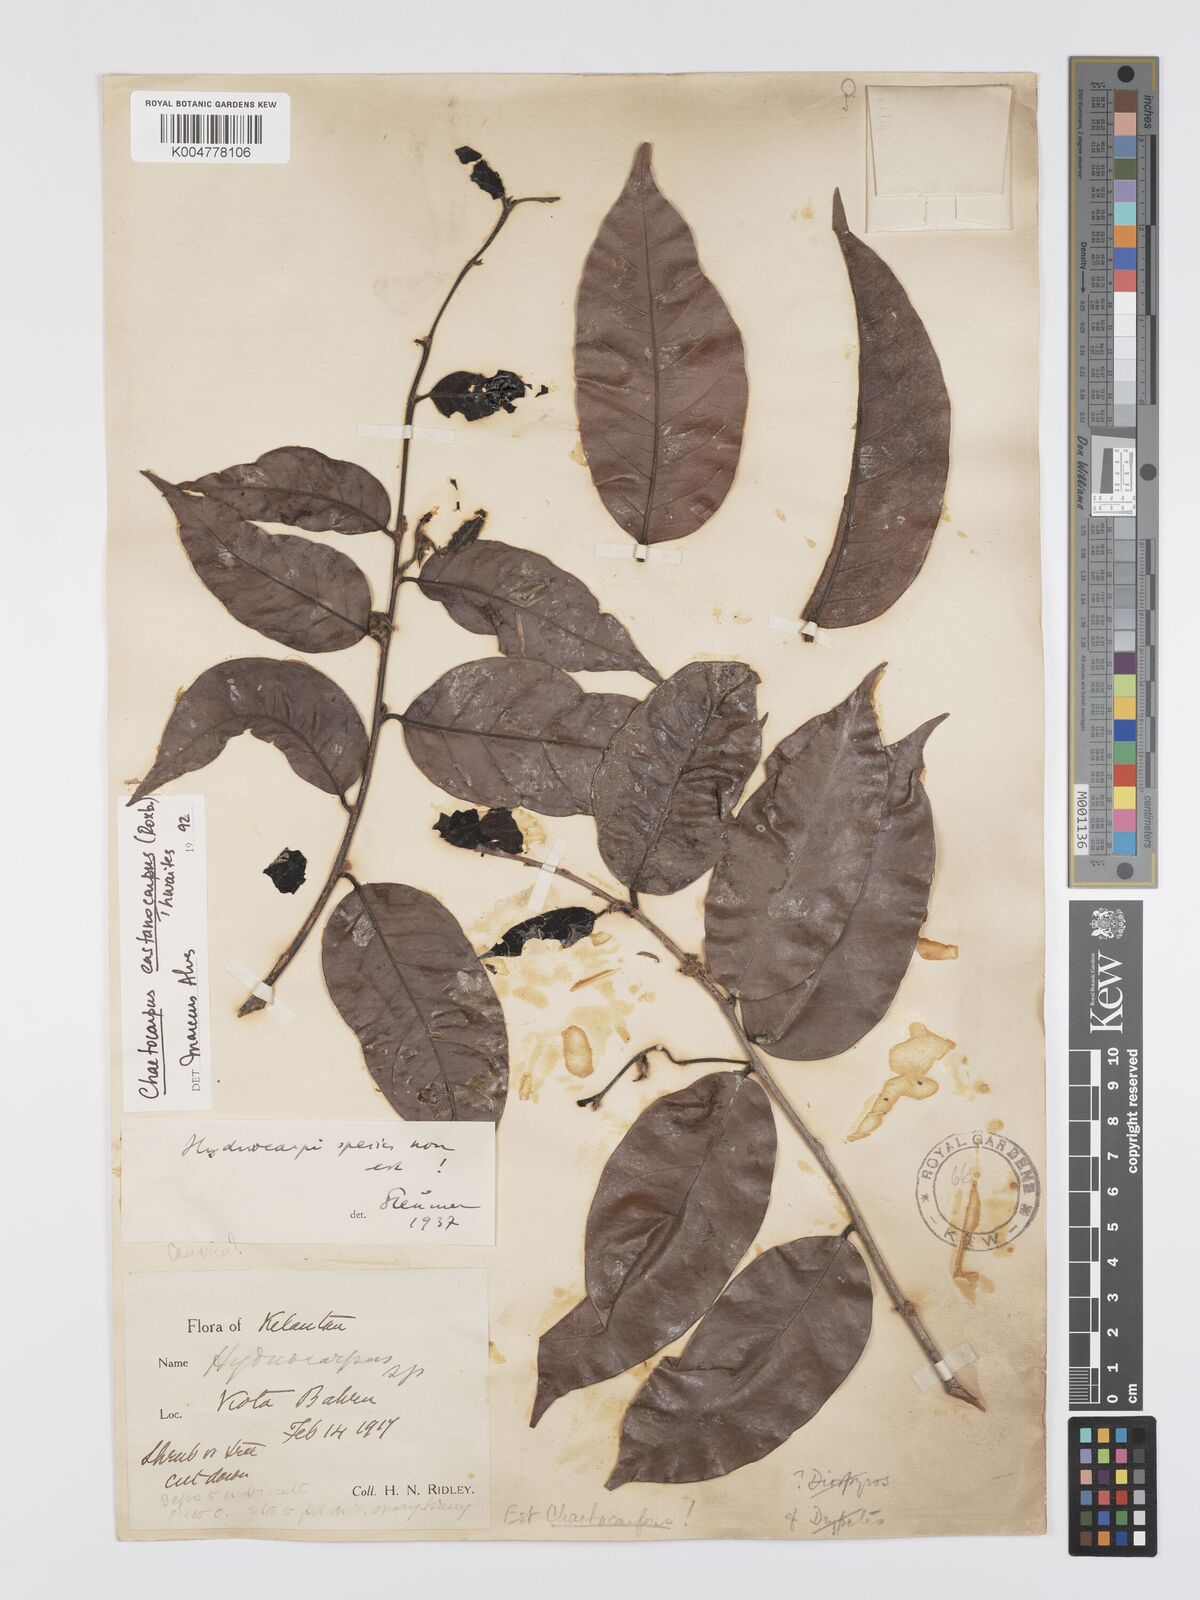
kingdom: Plantae
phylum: Tracheophyta
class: Magnoliopsida
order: Malpighiales
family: Peraceae
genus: Chaetocarpus
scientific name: Chaetocarpus castanocarpus
